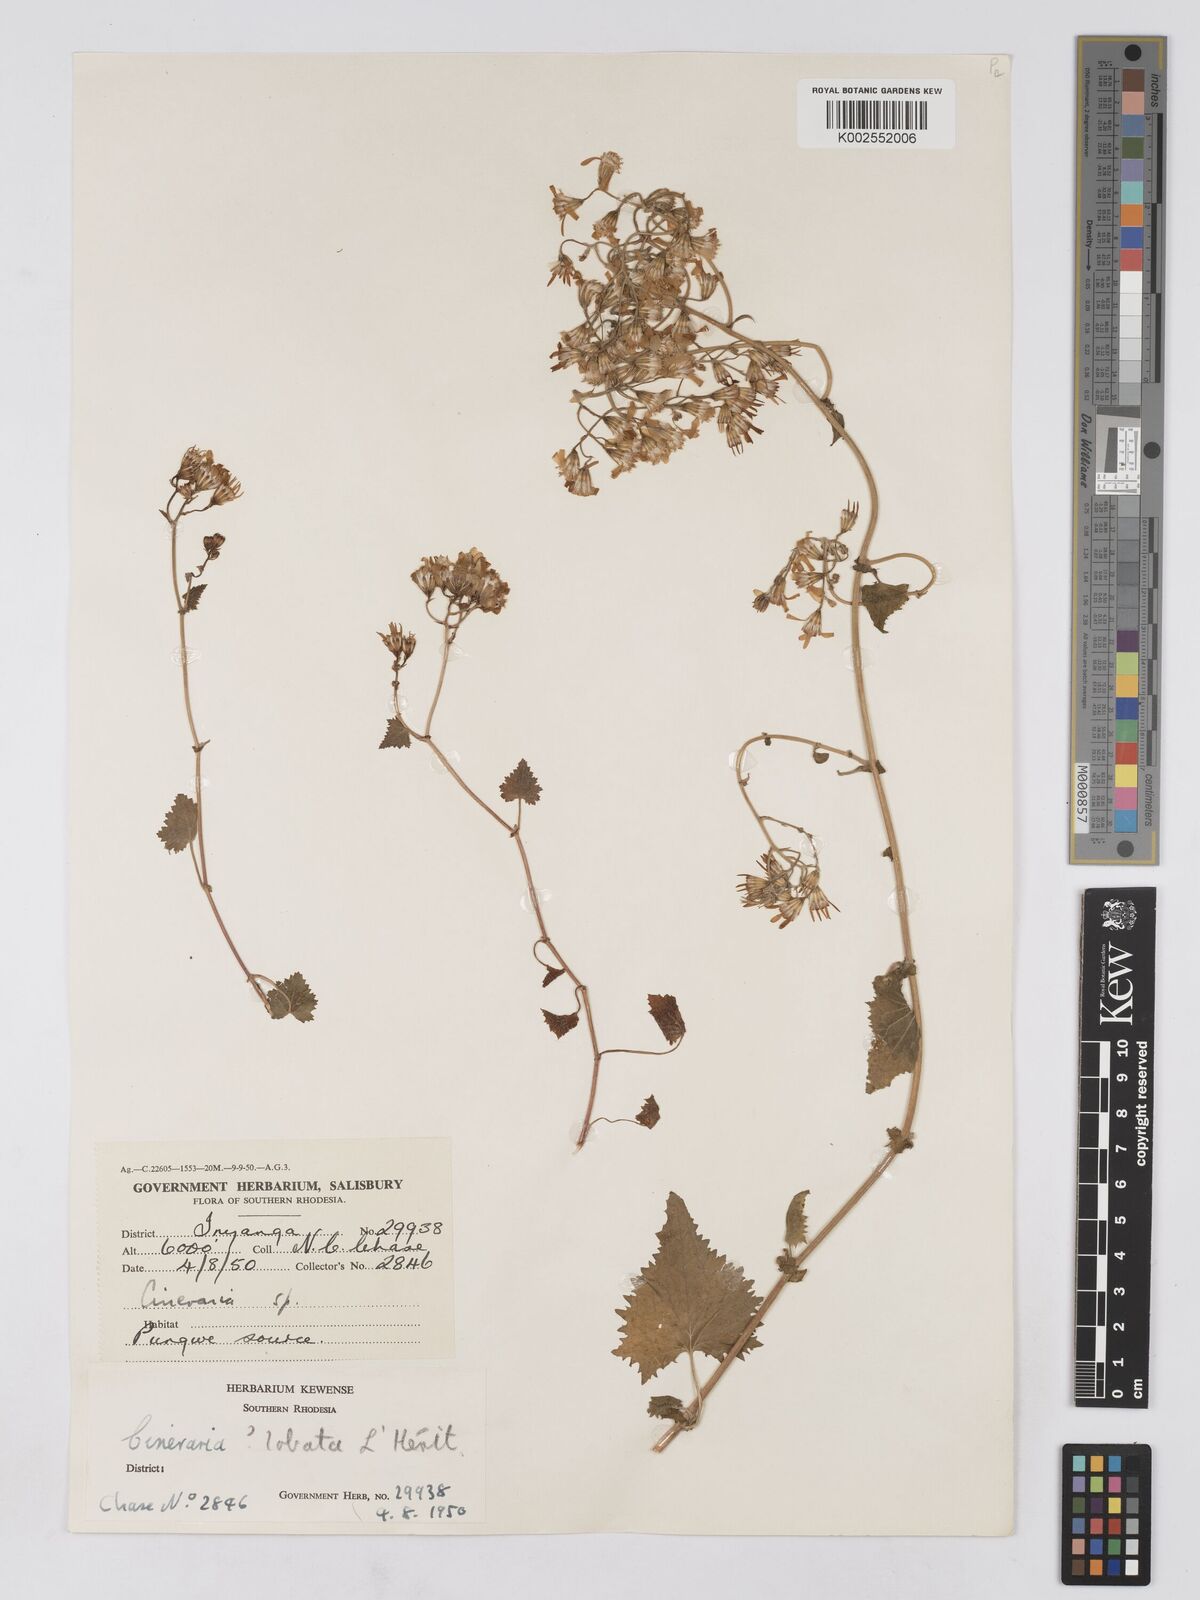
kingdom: Plantae
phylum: Tracheophyta
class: Magnoliopsida
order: Asterales
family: Asteraceae
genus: Cineraria
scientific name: Cineraria deltoidea
